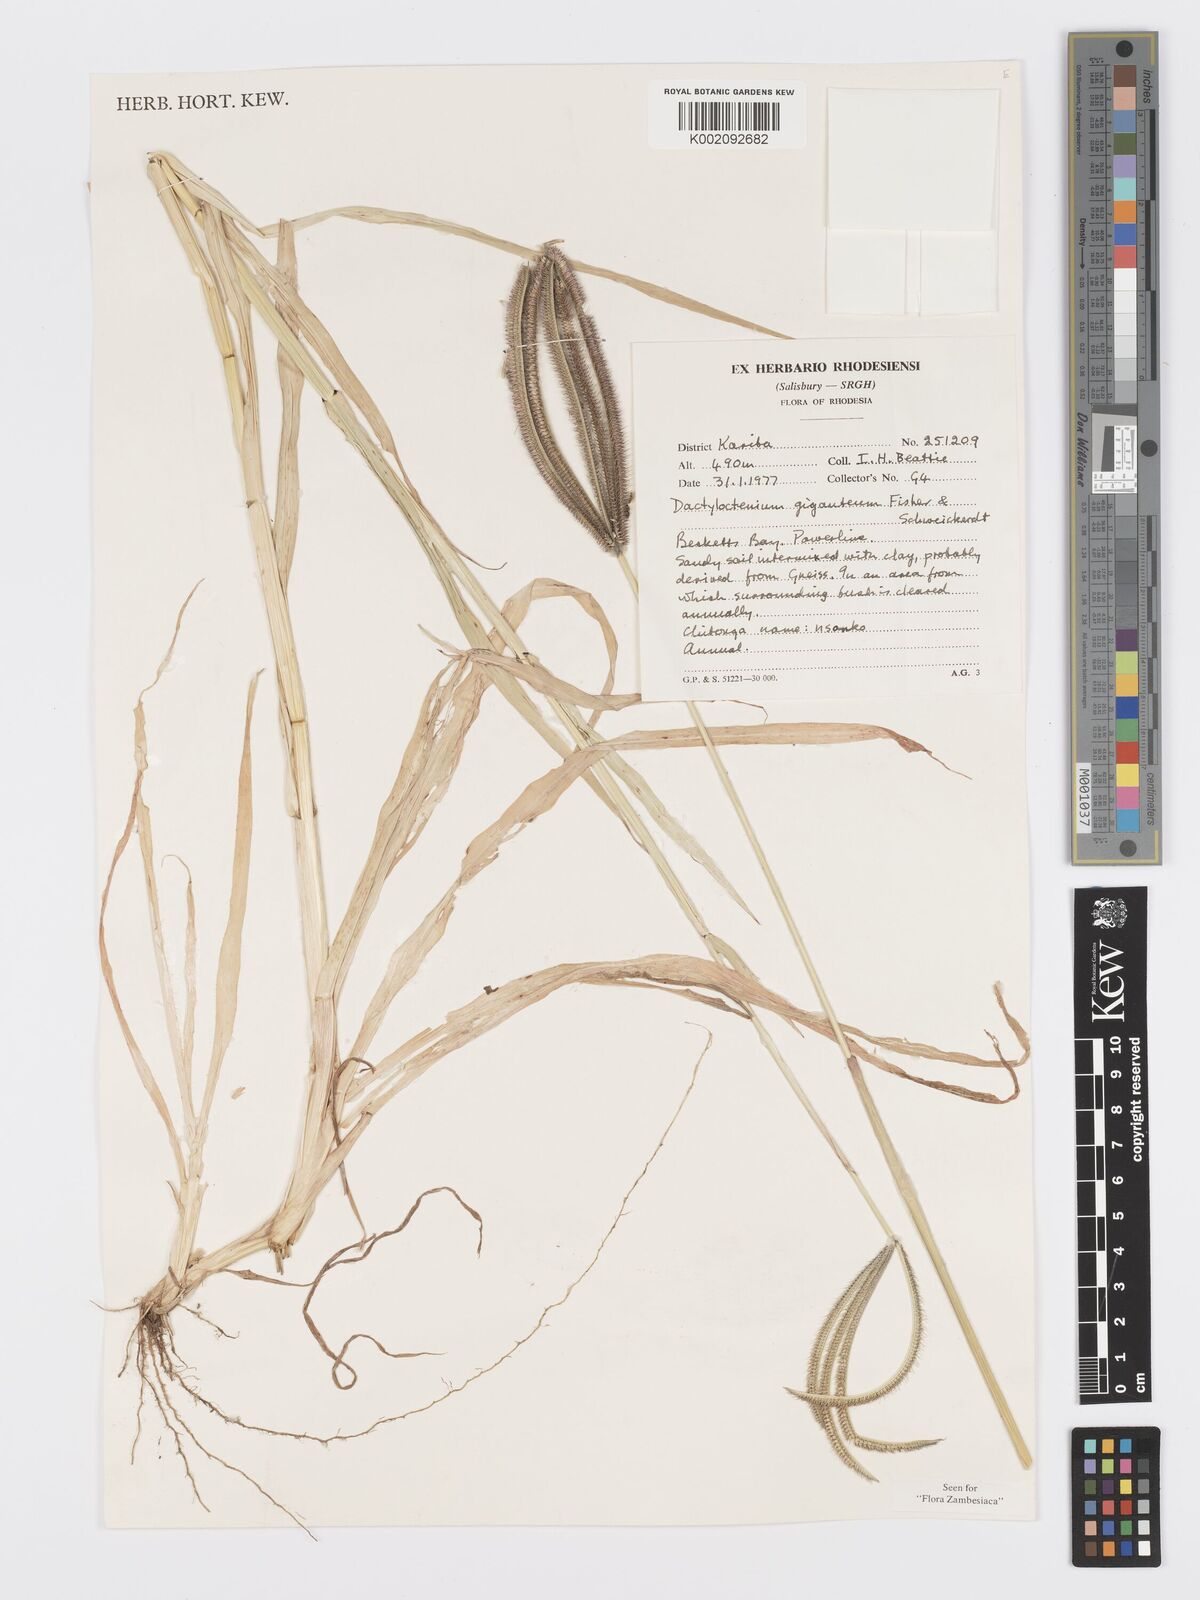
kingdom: Plantae
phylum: Tracheophyta
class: Liliopsida
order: Poales
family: Poaceae
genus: Dactyloctenium
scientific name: Dactyloctenium giganteum
